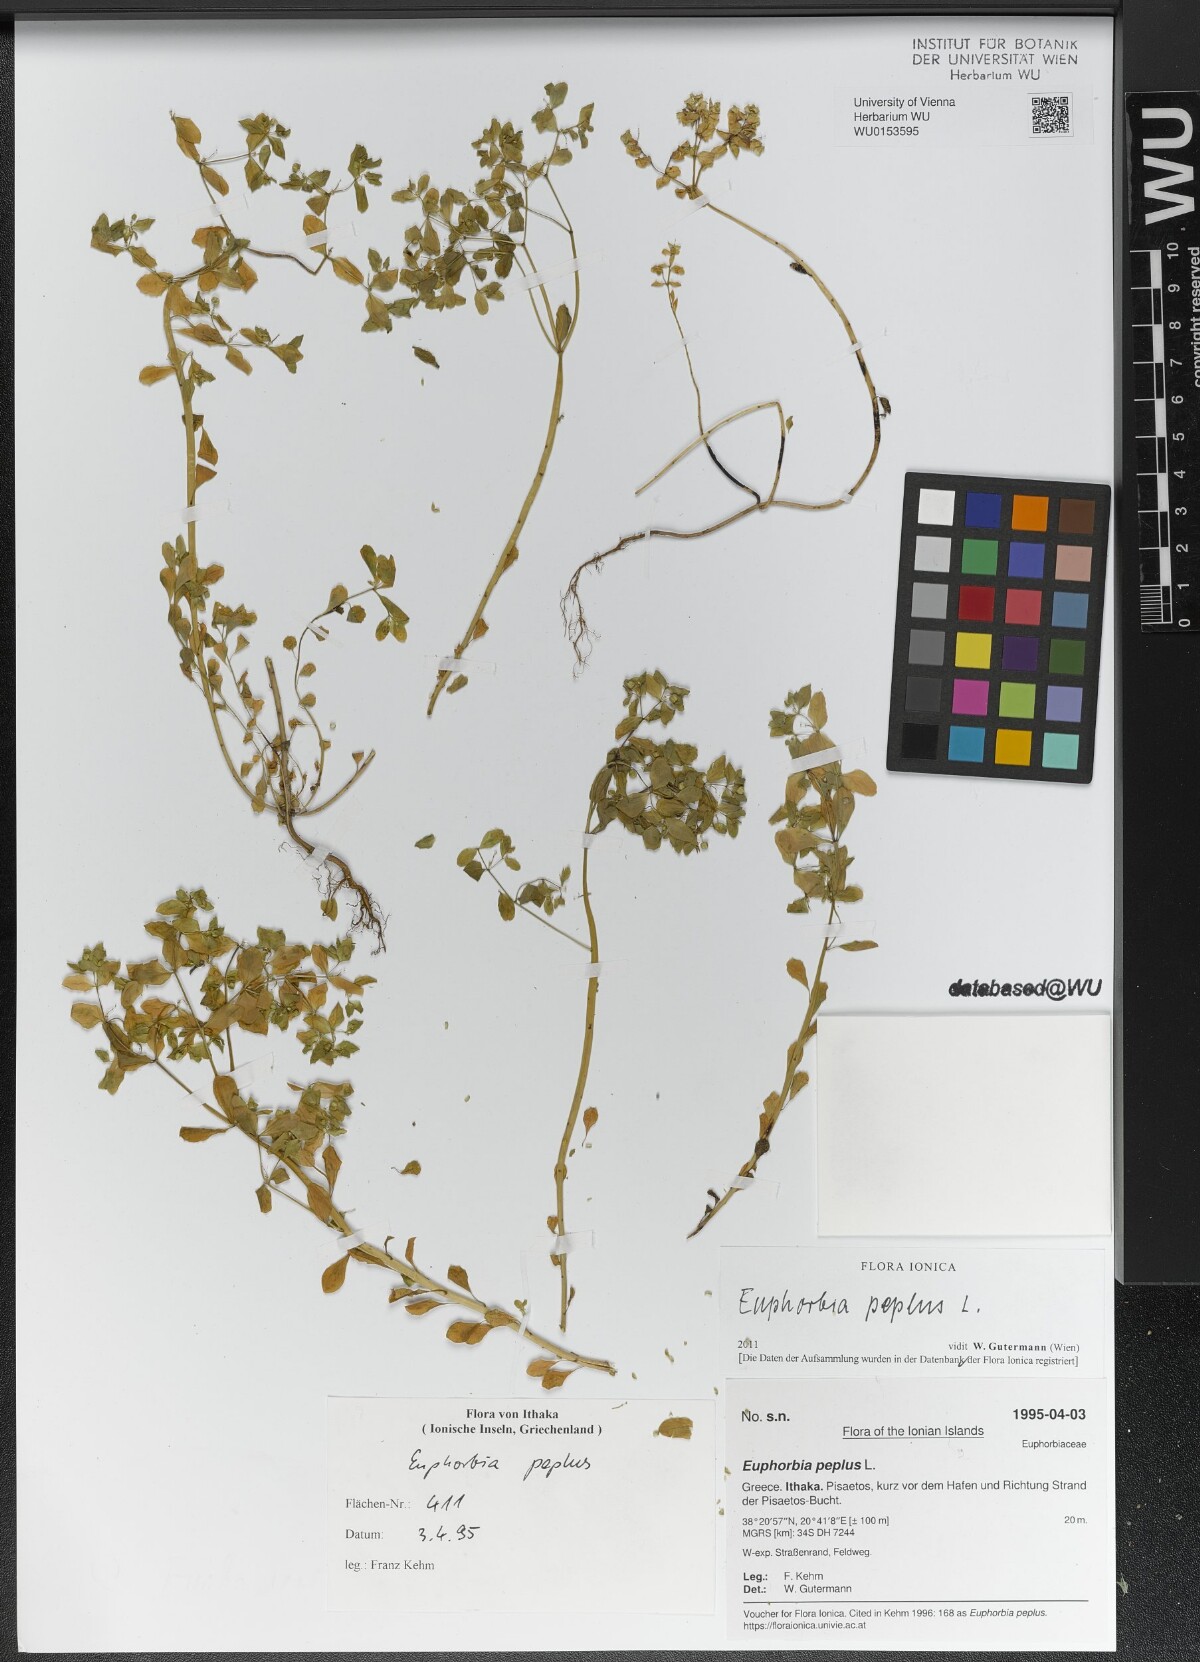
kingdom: Plantae
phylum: Tracheophyta
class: Magnoliopsida
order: Malpighiales
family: Euphorbiaceae
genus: Euphorbia
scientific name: Euphorbia peplus
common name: Petty spurge
